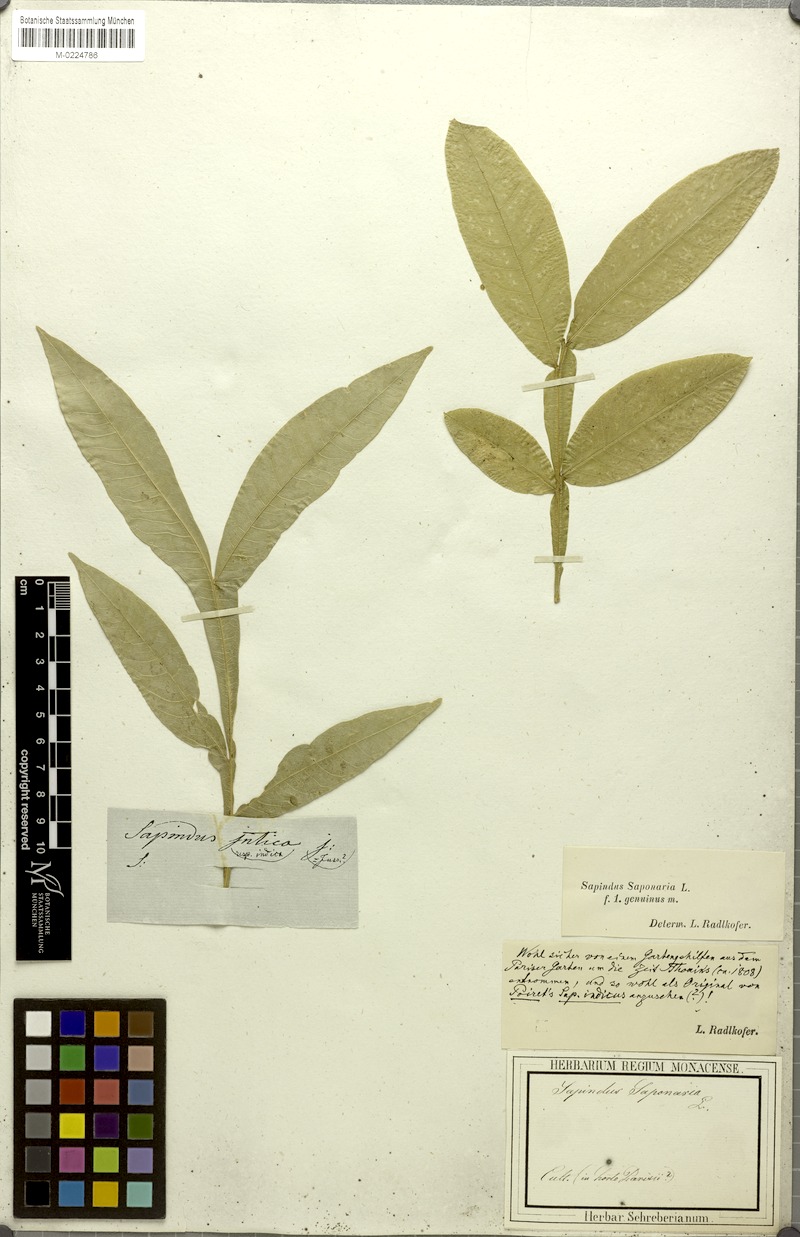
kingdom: Plantae
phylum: Tracheophyta
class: Magnoliopsida
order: Sapindales
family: Sapindaceae
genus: Sapindus
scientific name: Sapindus saponaria
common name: Wingleaf soapberry
